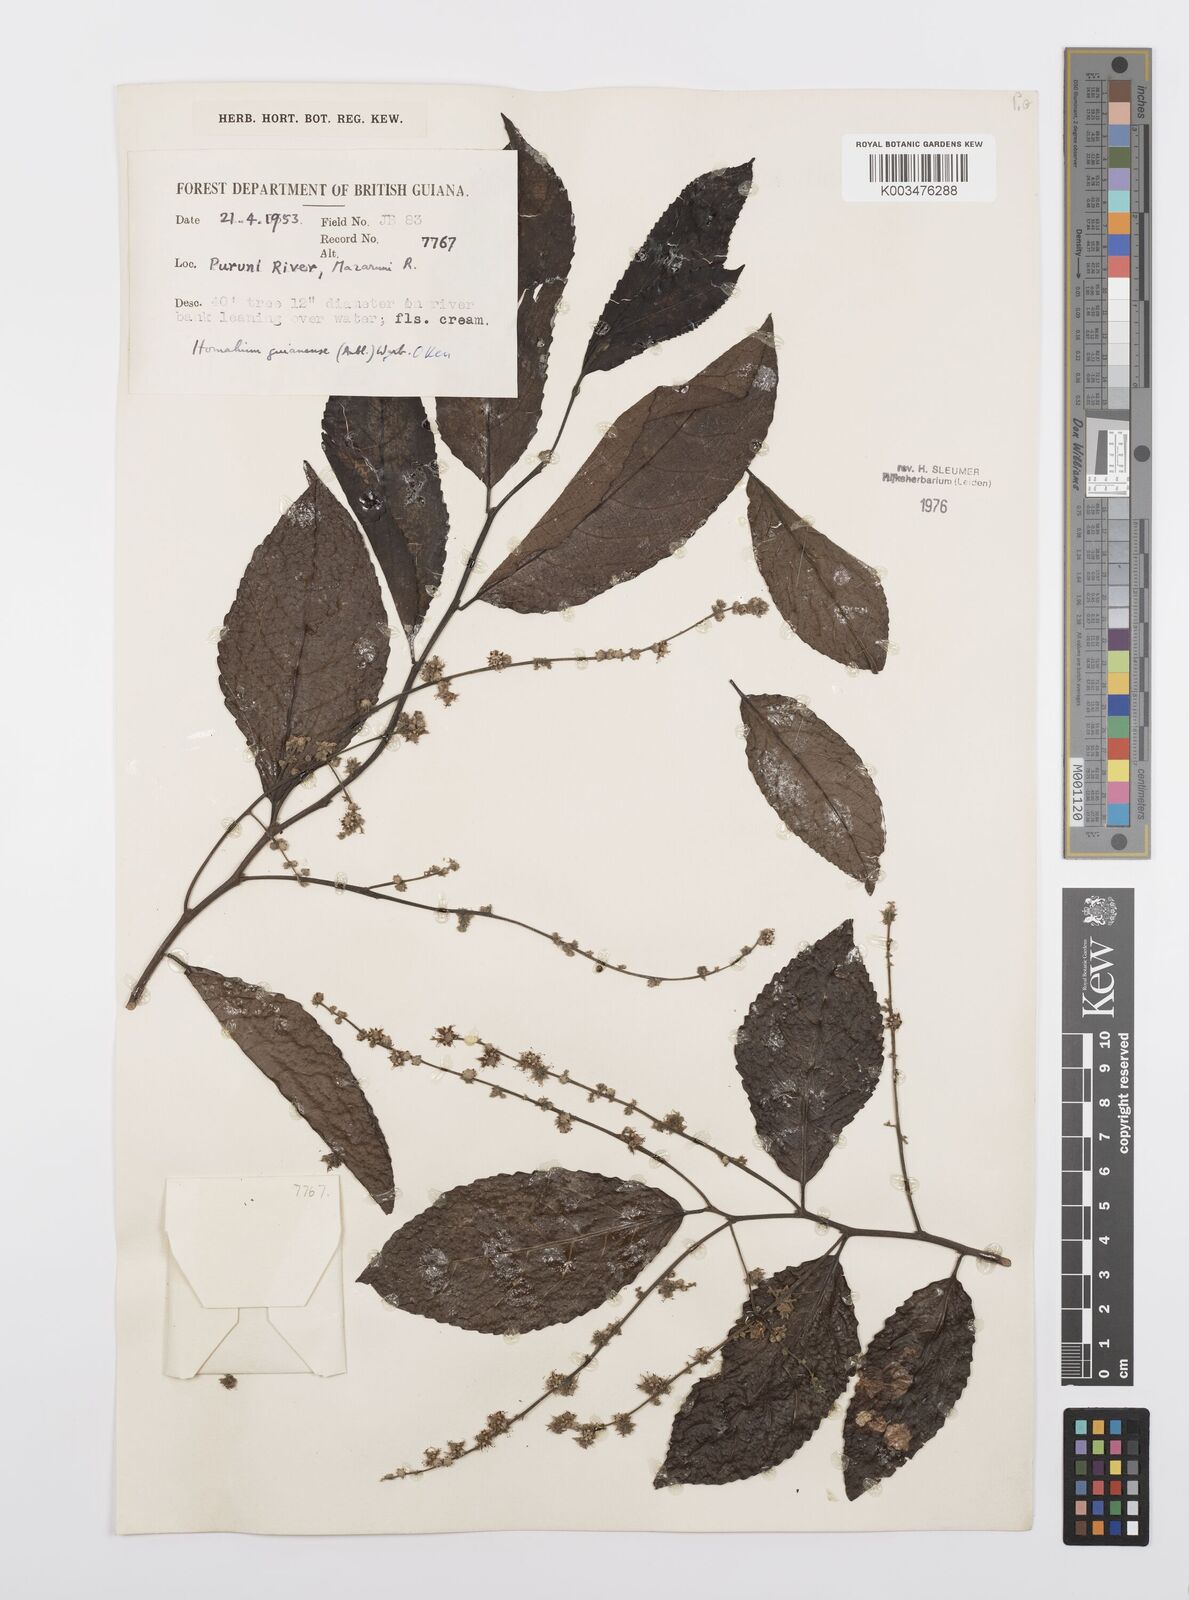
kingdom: Plantae
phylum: Tracheophyta
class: Magnoliopsida
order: Malpighiales
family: Salicaceae
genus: Homalium
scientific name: Homalium guianense
